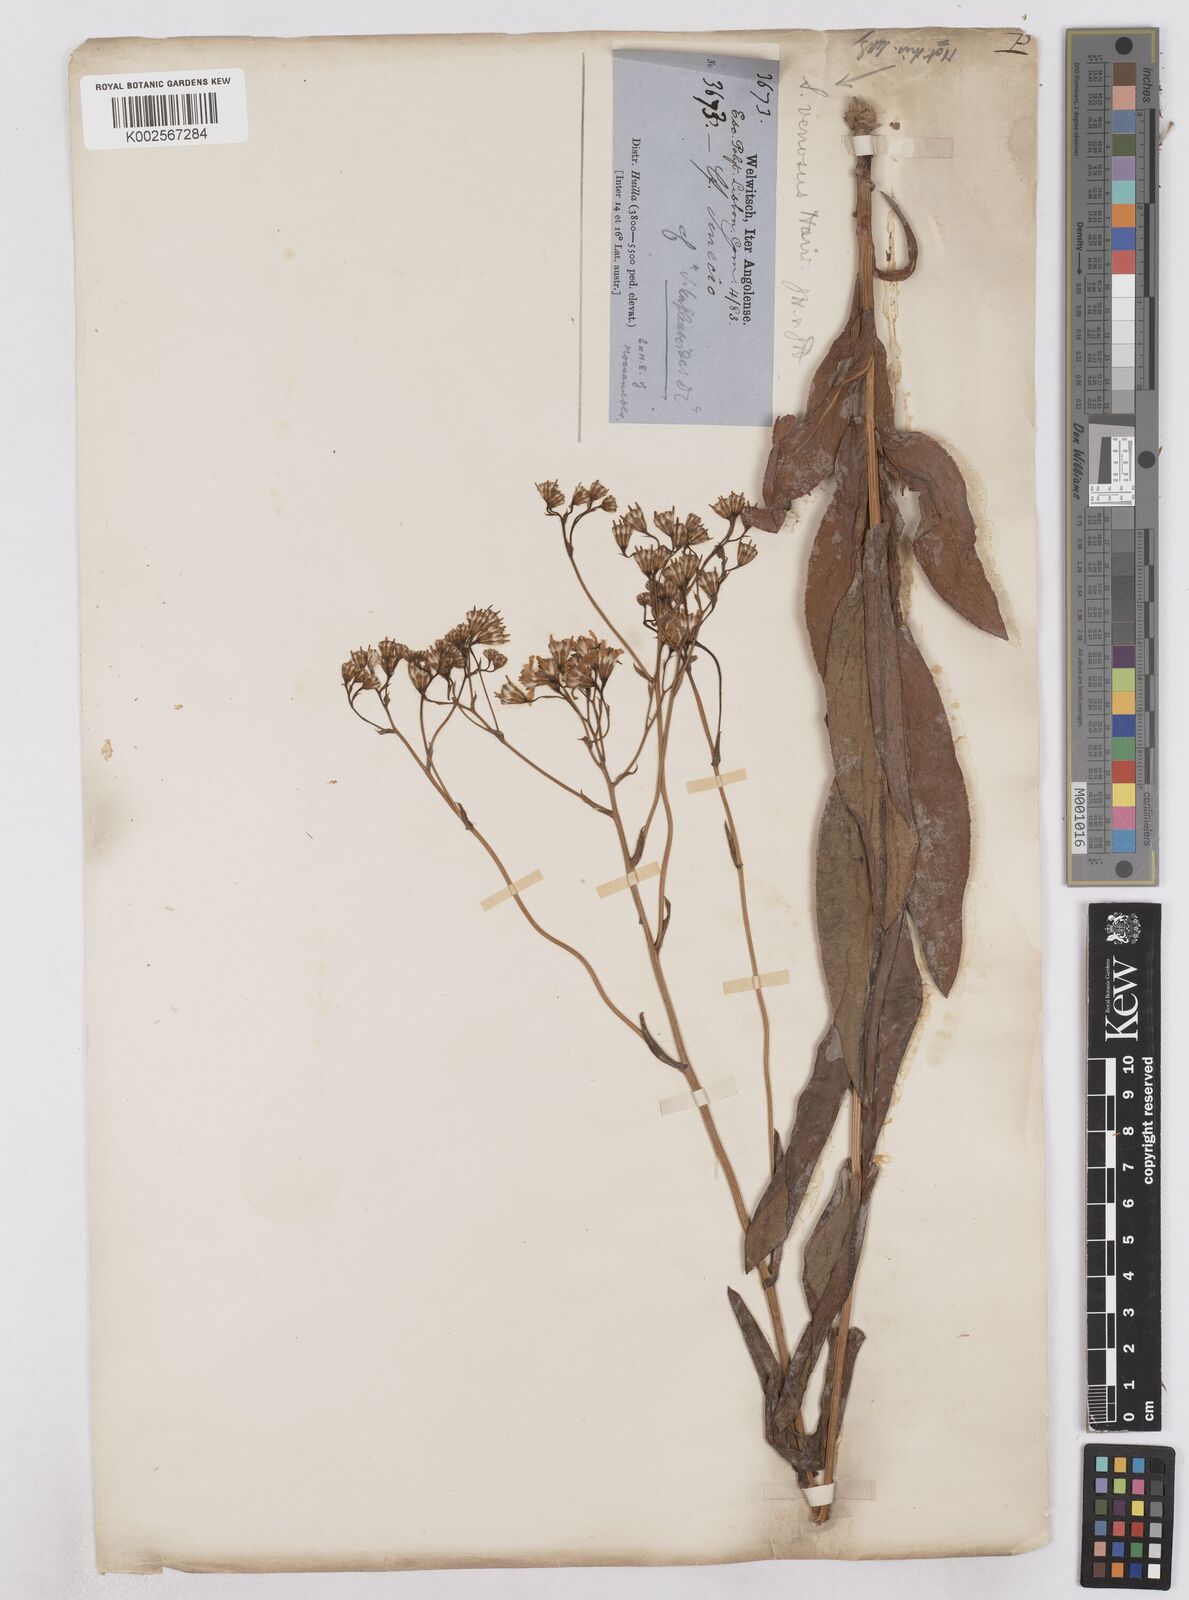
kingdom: Plantae
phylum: Tracheophyta
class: Magnoliopsida
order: Asterales
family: Asteraceae
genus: Senecio
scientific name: Senecio latifolius
